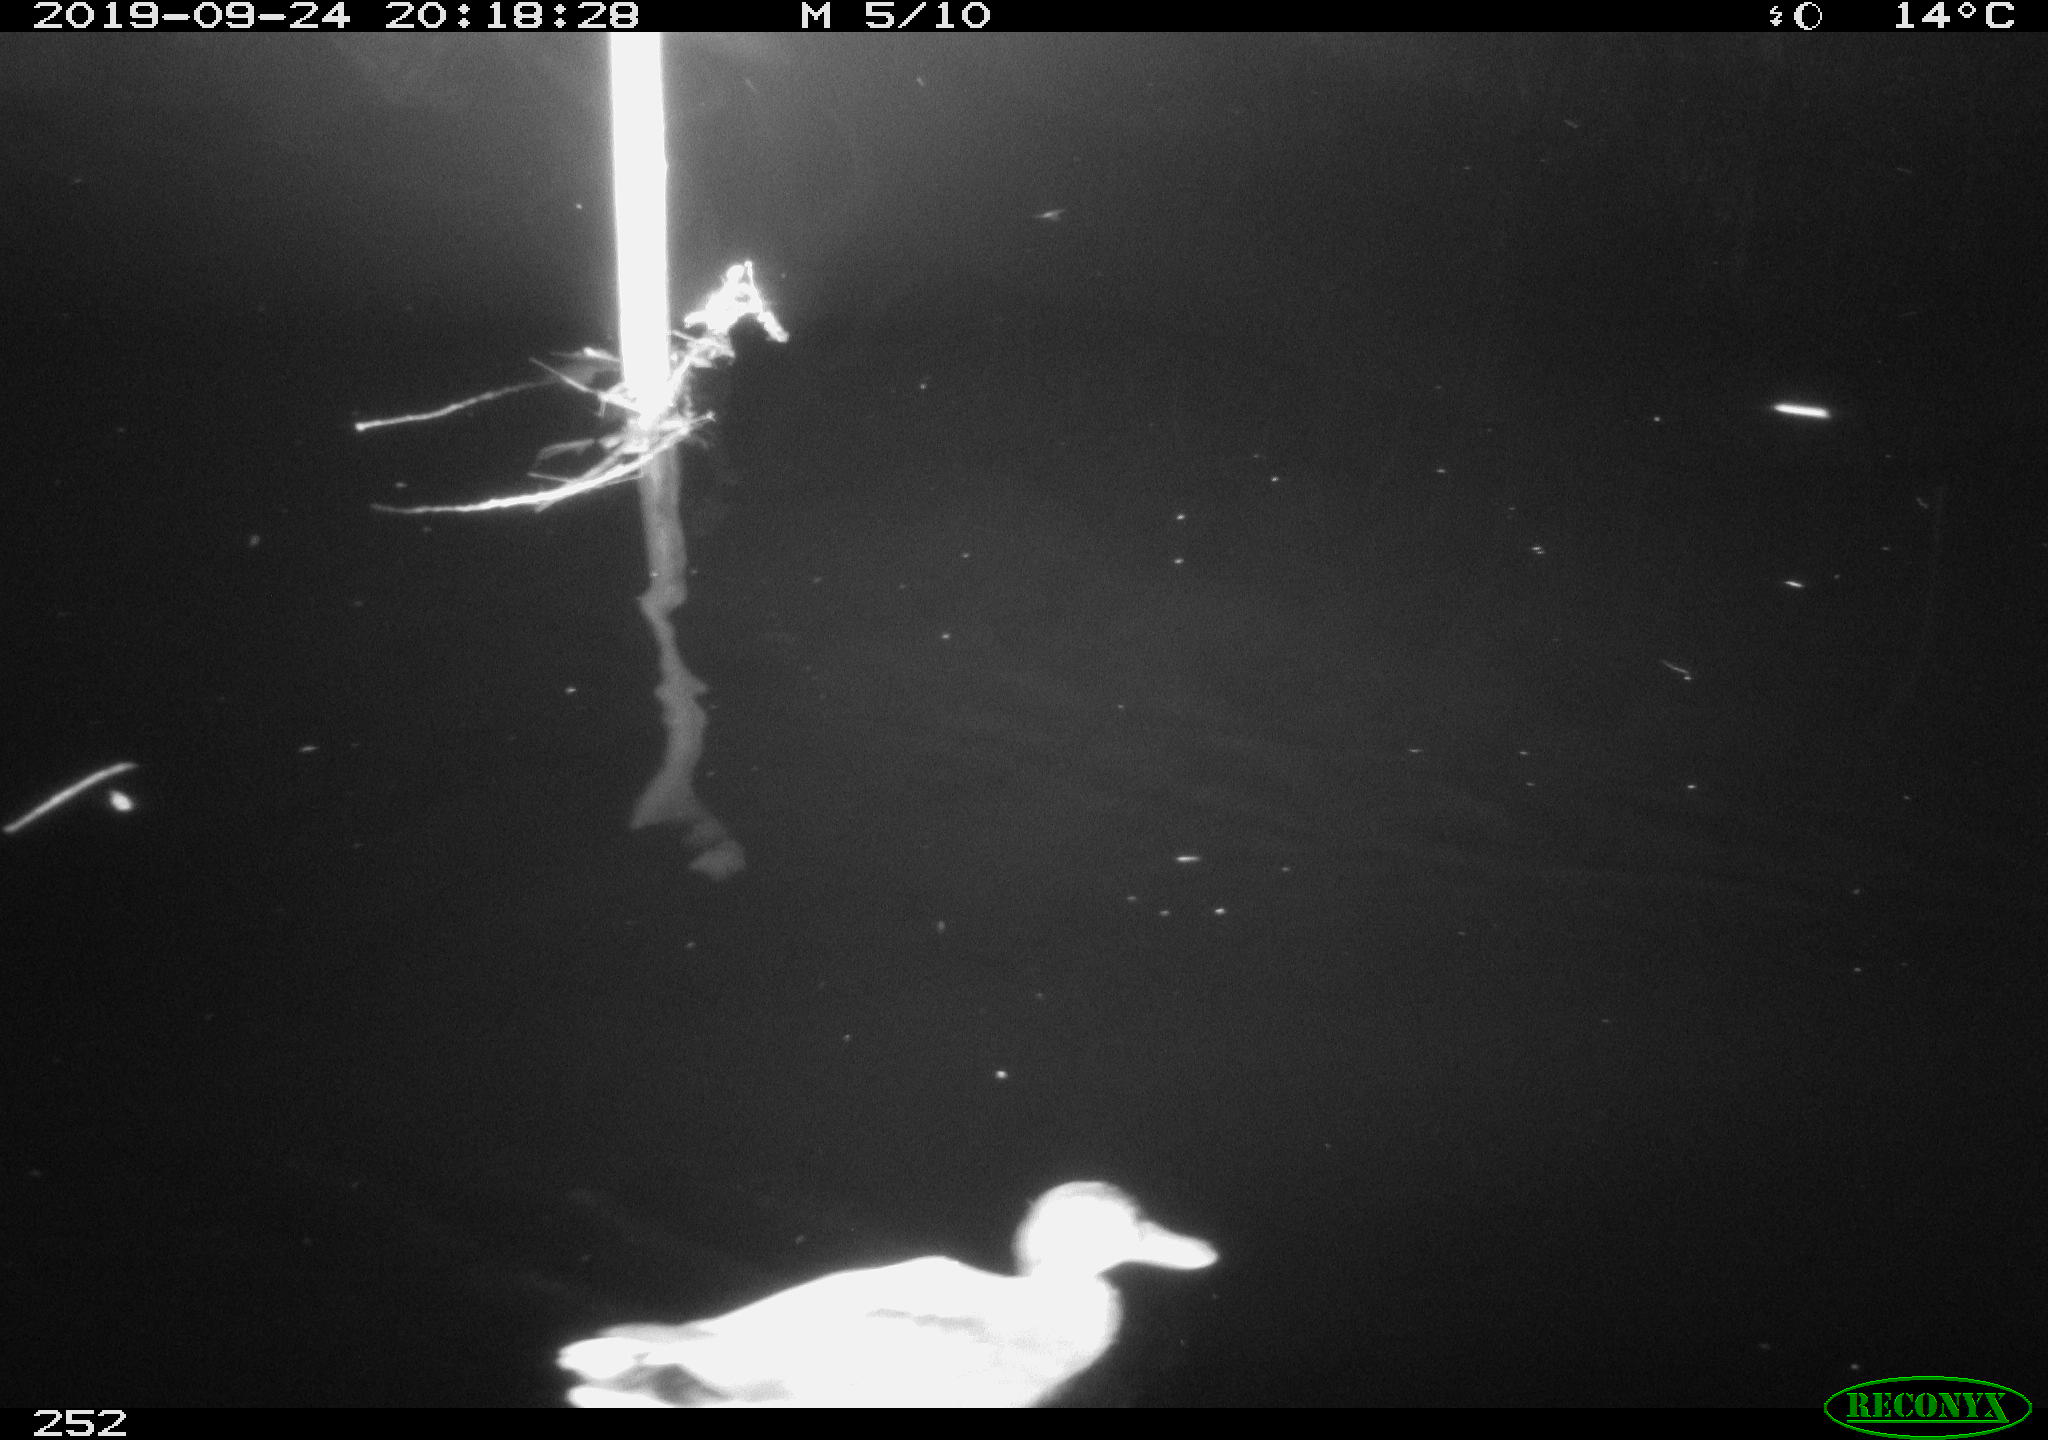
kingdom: Animalia
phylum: Chordata
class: Aves
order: Anseriformes
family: Anatidae
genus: Anas
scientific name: Anas platyrhynchos
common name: Mallard
